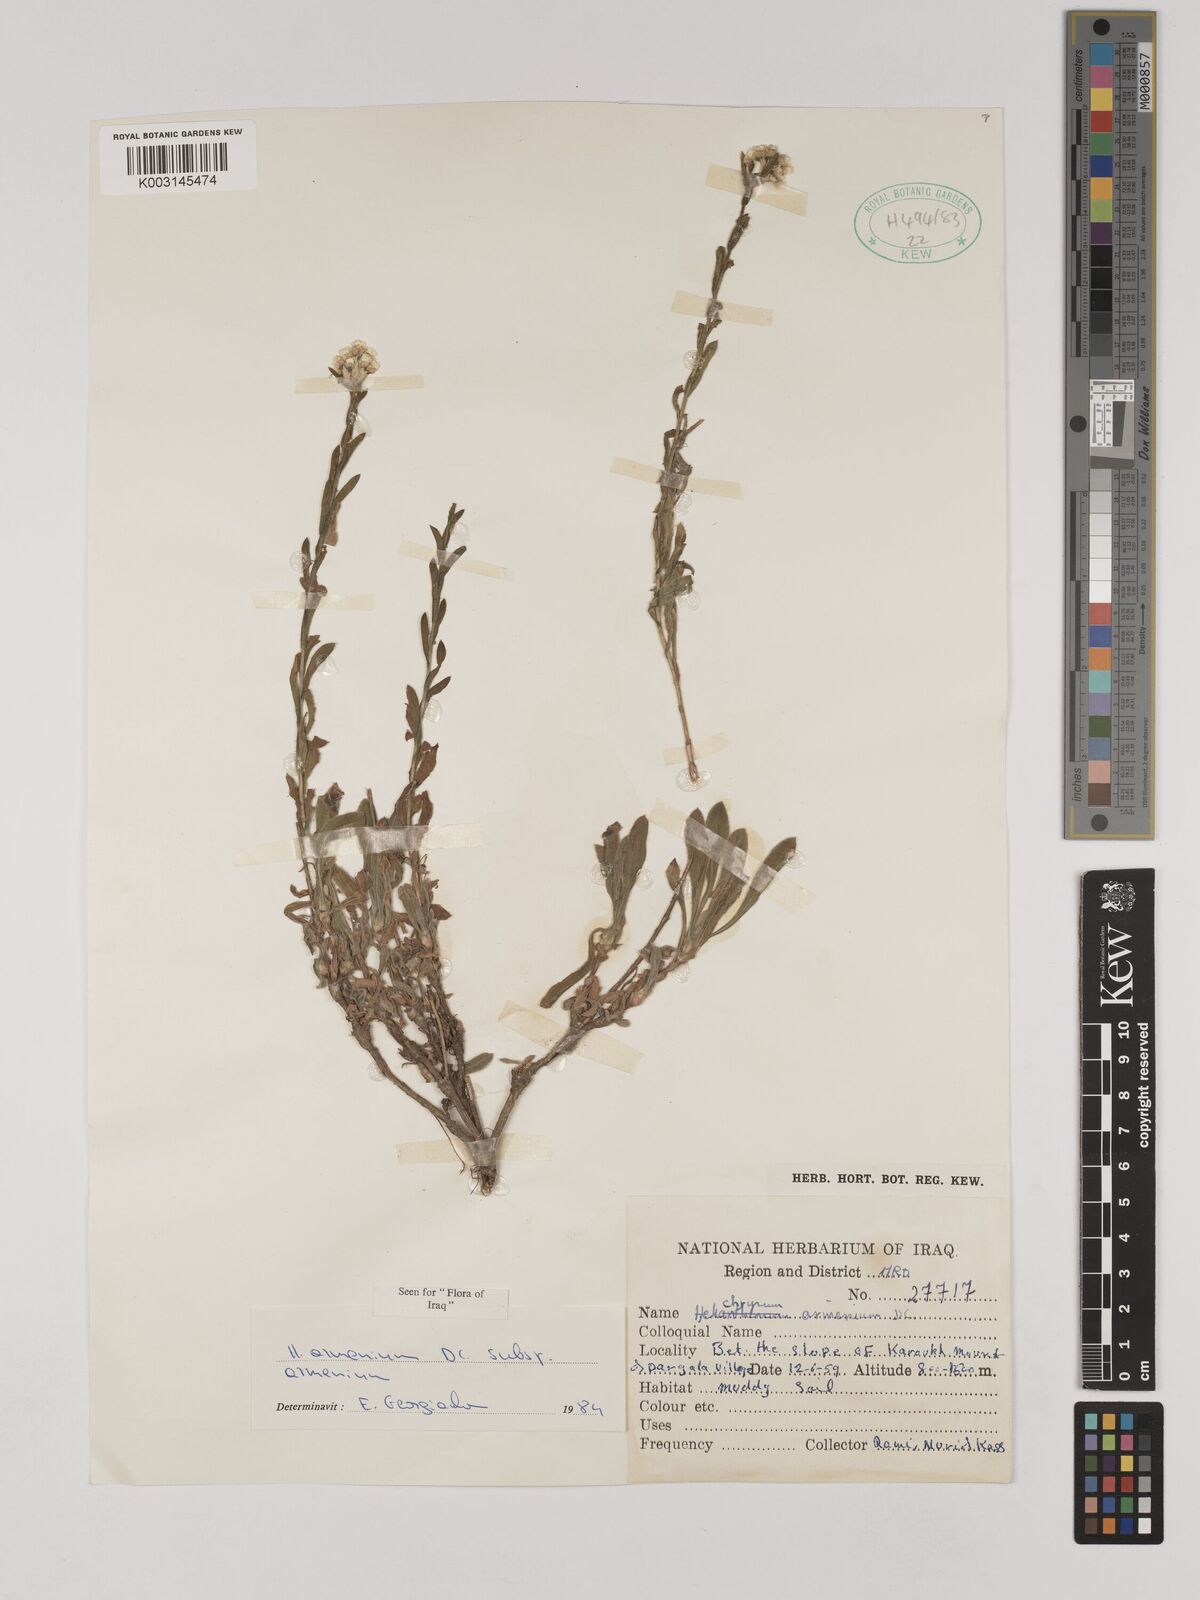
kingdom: Plantae
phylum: Tracheophyta
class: Magnoliopsida
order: Asterales
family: Asteraceae
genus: Helichrysum
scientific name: Helichrysum armenium
